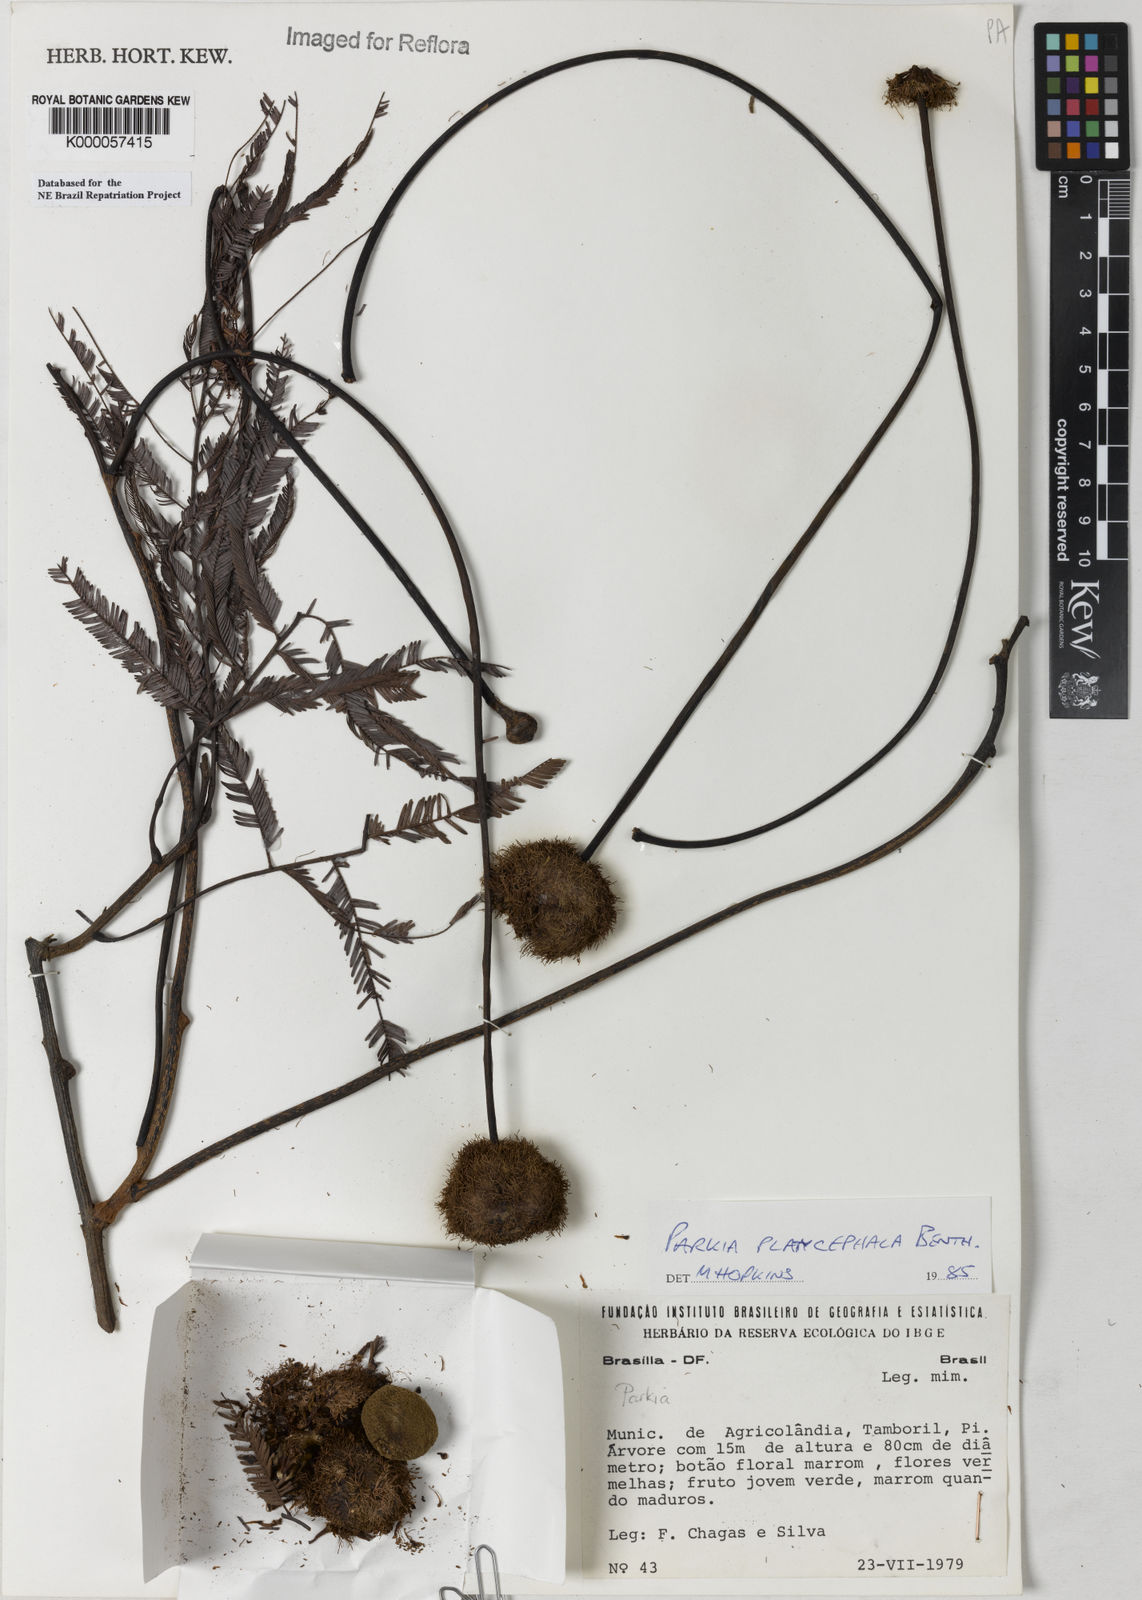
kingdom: Plantae
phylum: Tracheophyta
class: Magnoliopsida
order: Fabales
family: Fabaceae
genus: Parkia
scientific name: Parkia platycephala
